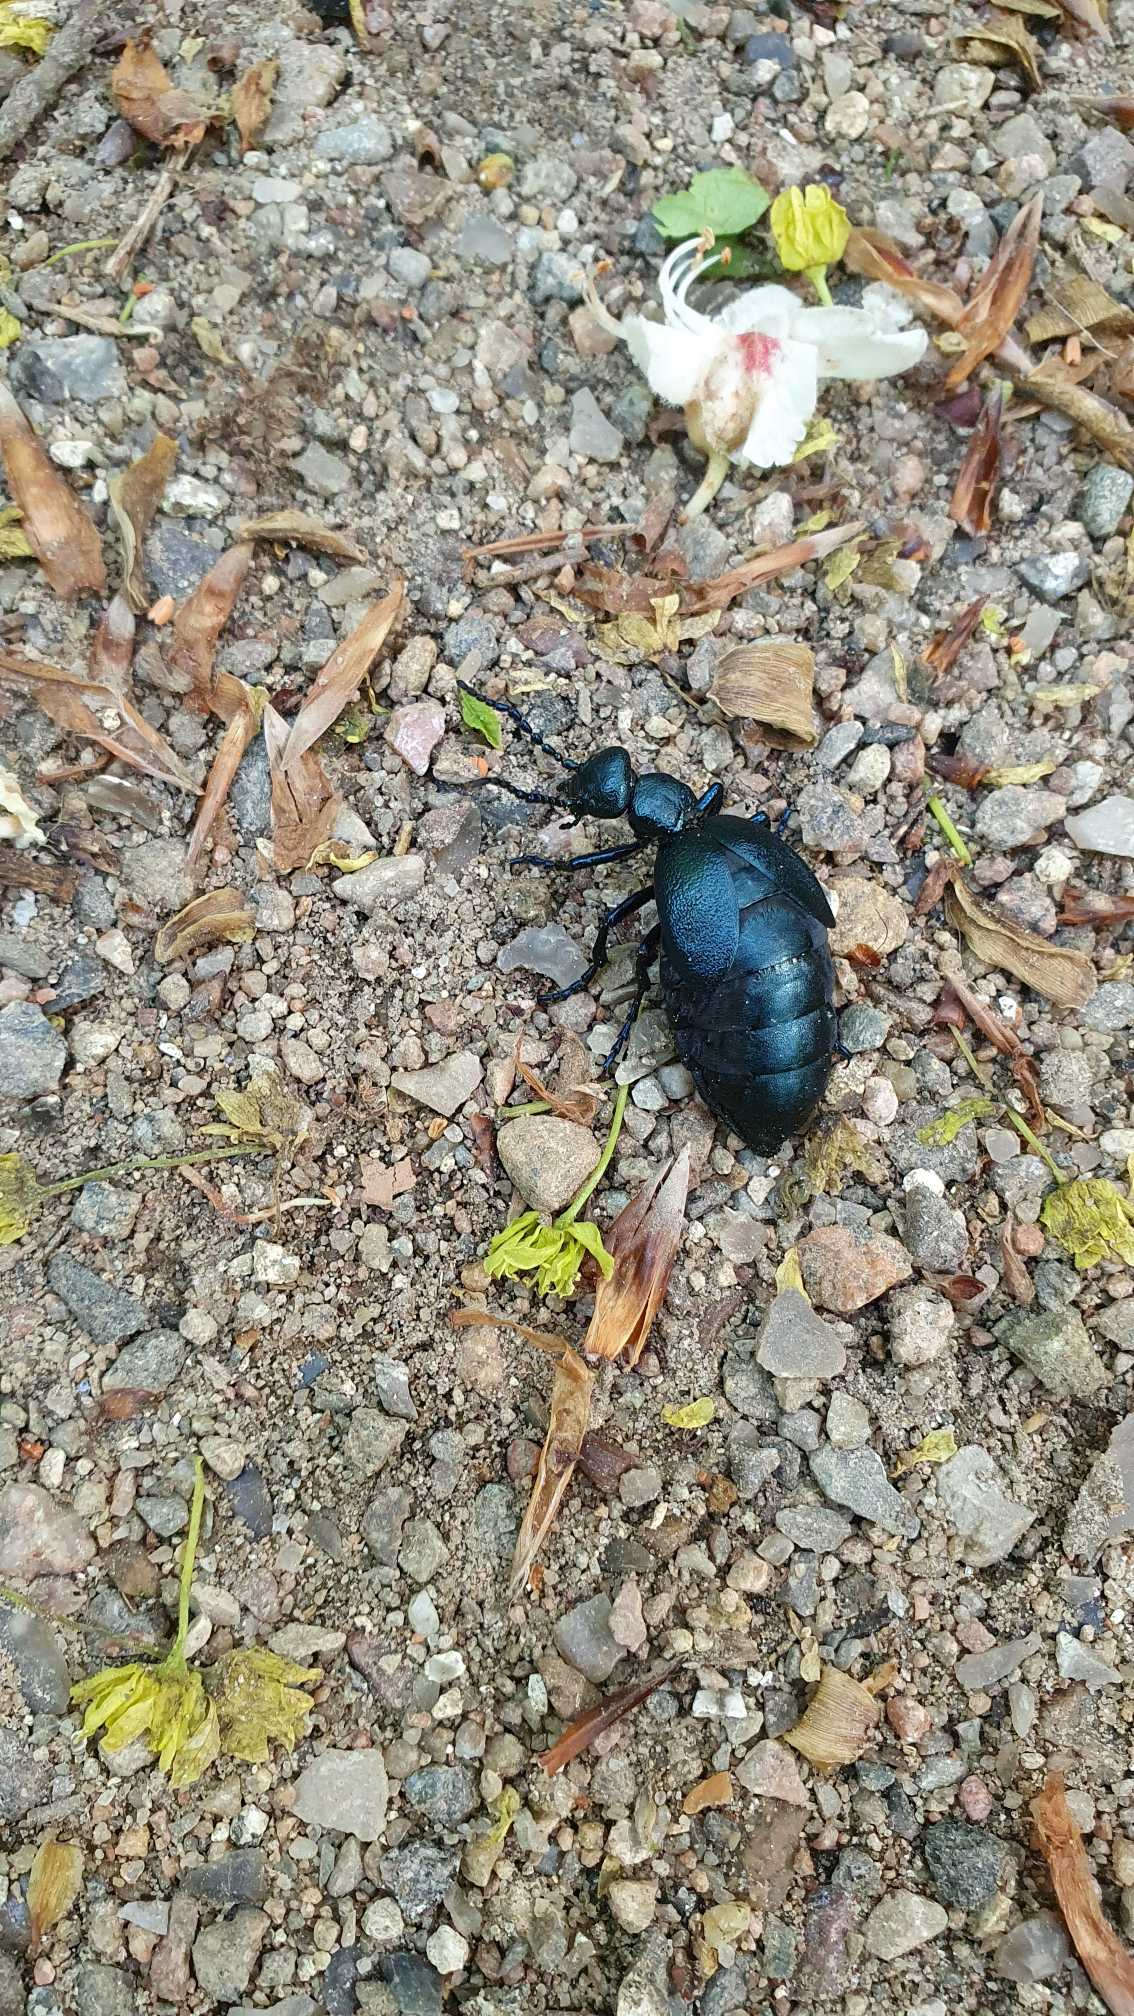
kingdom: Animalia
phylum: Arthropoda
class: Insecta
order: Coleoptera
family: Meloidae
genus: Meloe
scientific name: Meloe violaceus
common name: Blå oliebille
